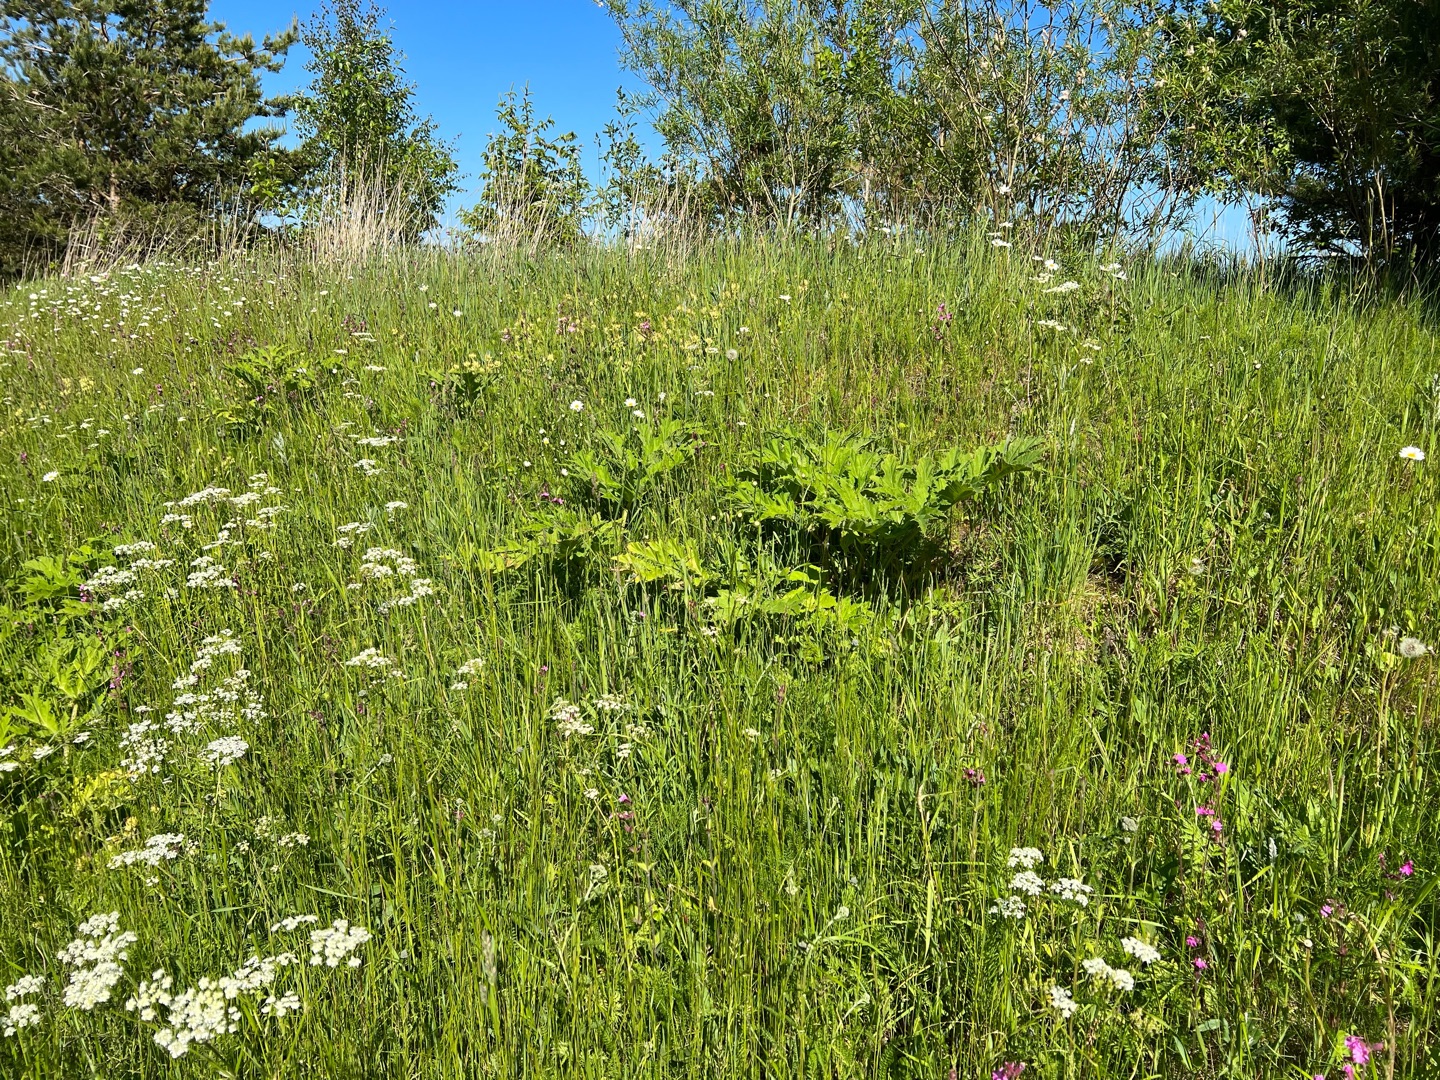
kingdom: Plantae
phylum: Tracheophyta
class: Magnoliopsida
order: Apiales
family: Apiaceae
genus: Heracleum
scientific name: Heracleum mantegazzianum
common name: Kæmpe-bjørneklo
